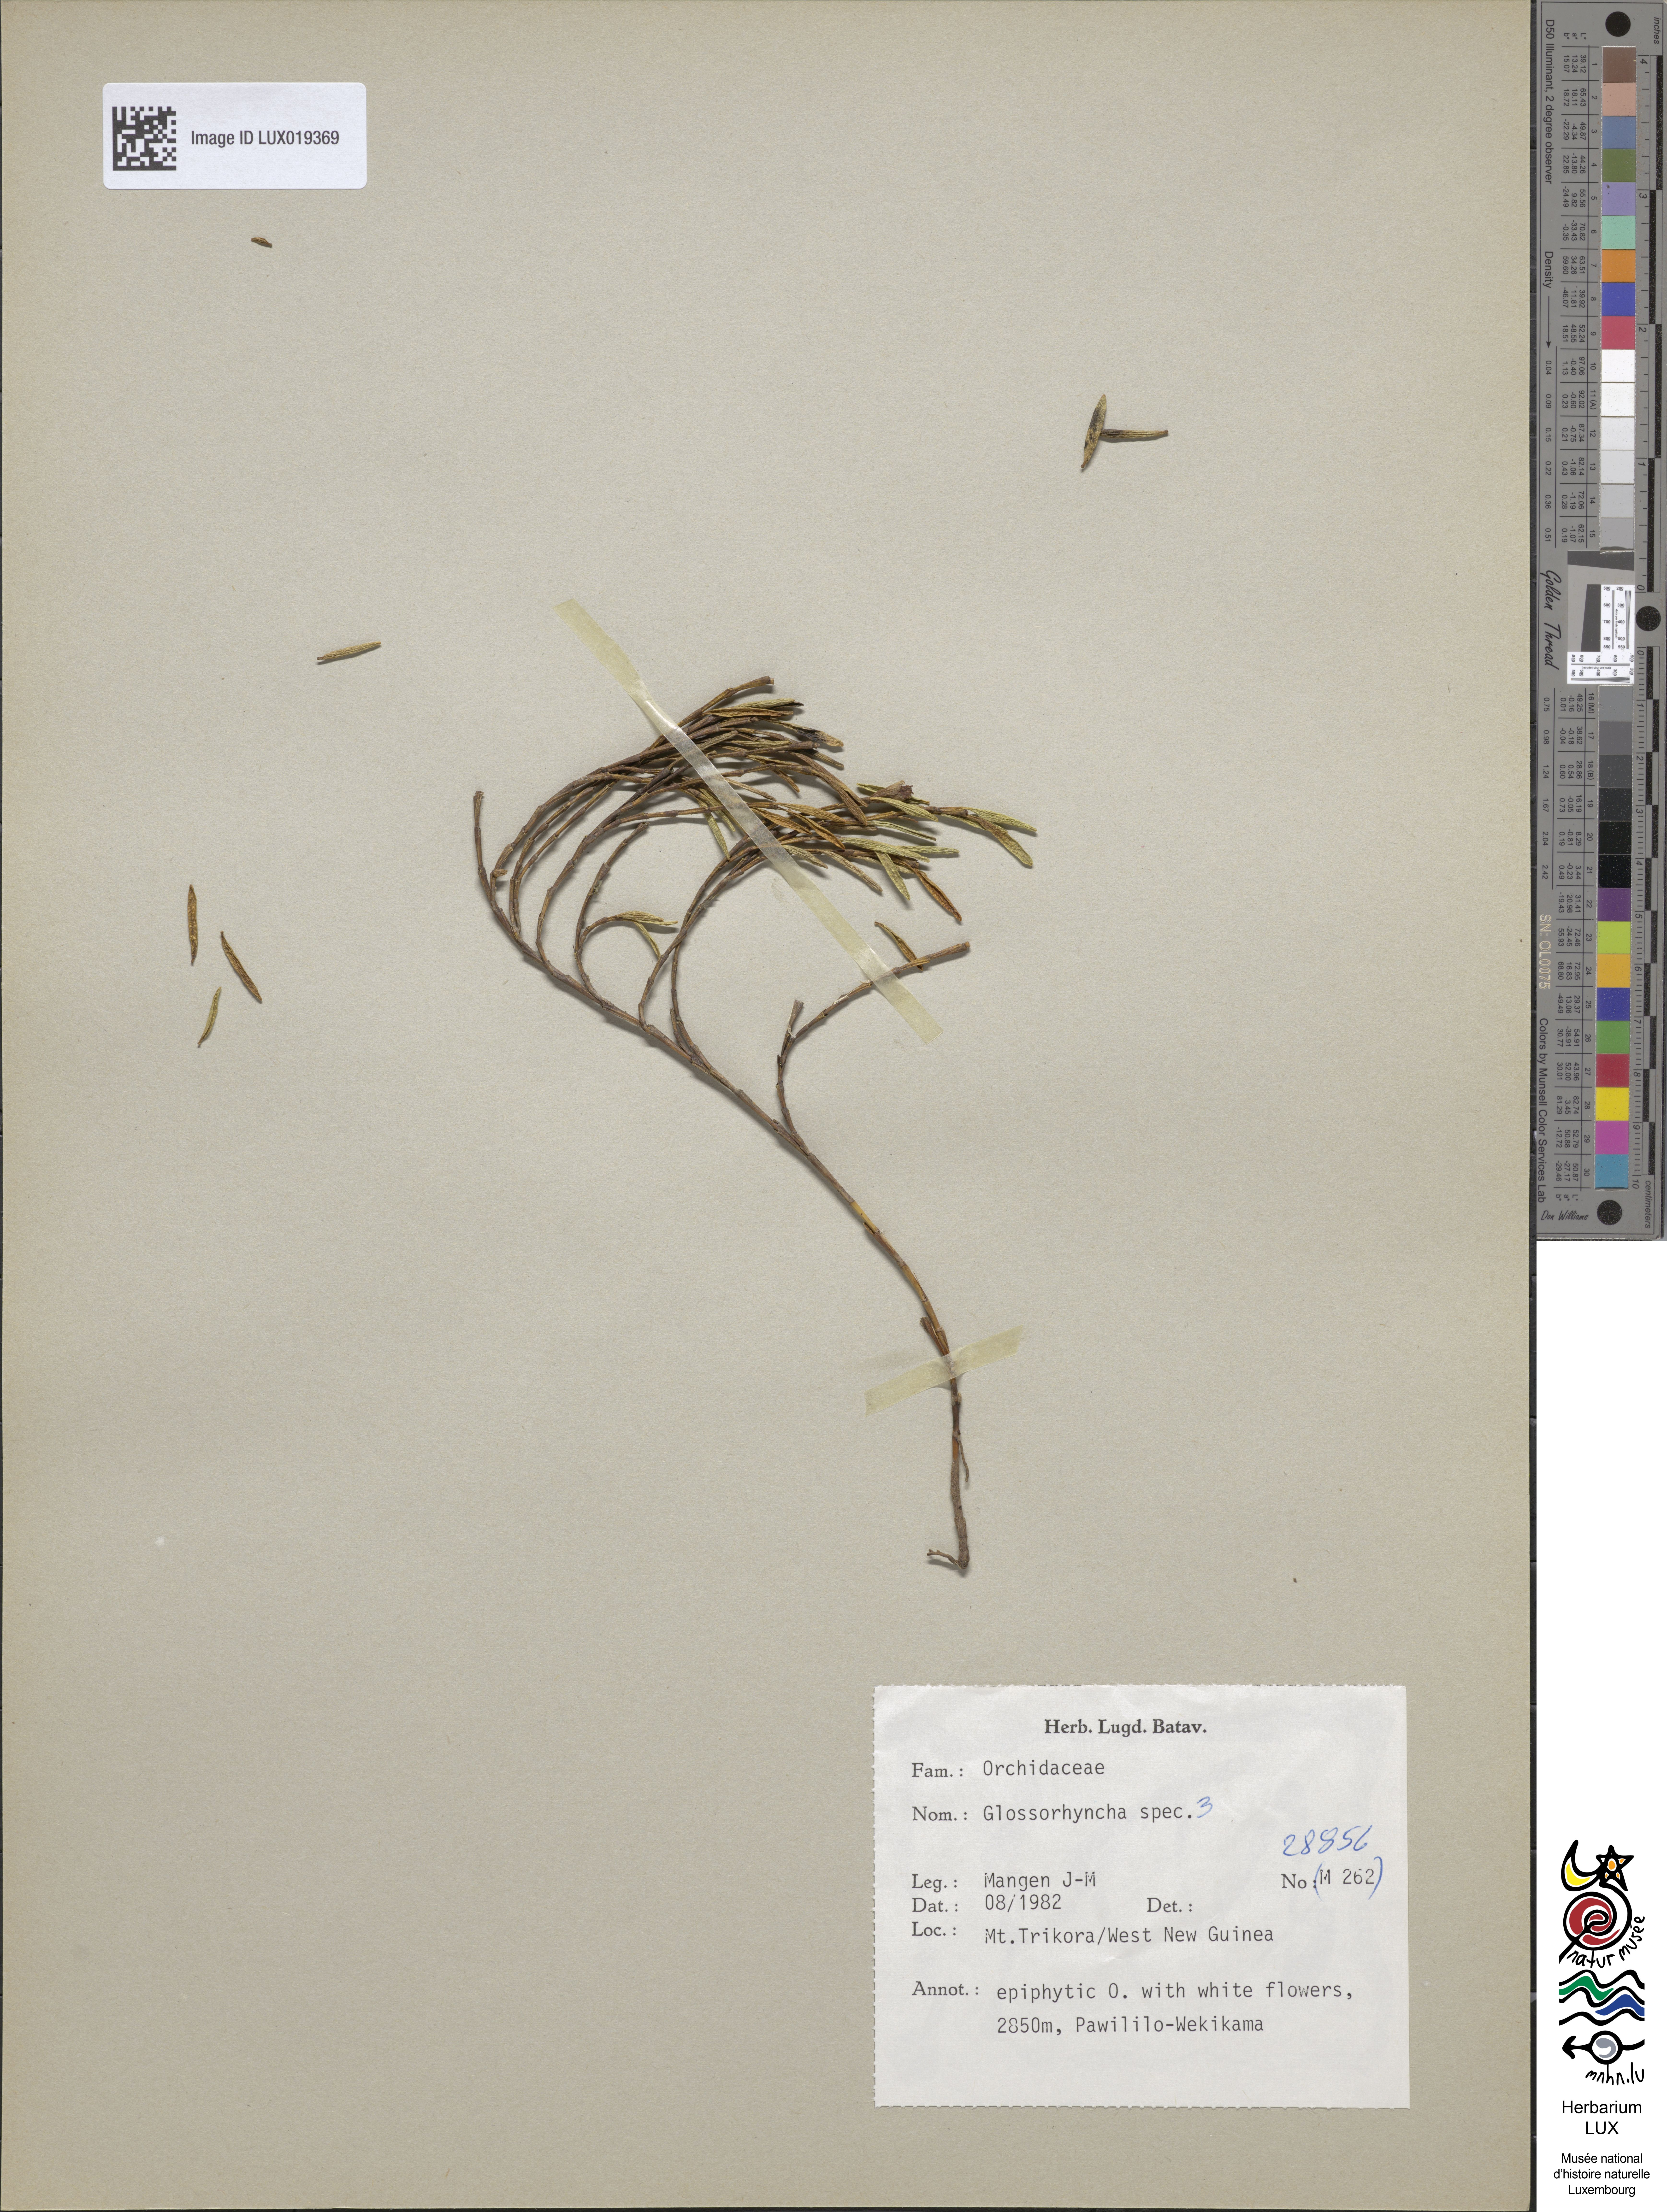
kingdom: Plantae
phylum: Tracheophyta
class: Liliopsida
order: Asparagales
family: Orchidaceae
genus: Glomera
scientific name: Glomera
